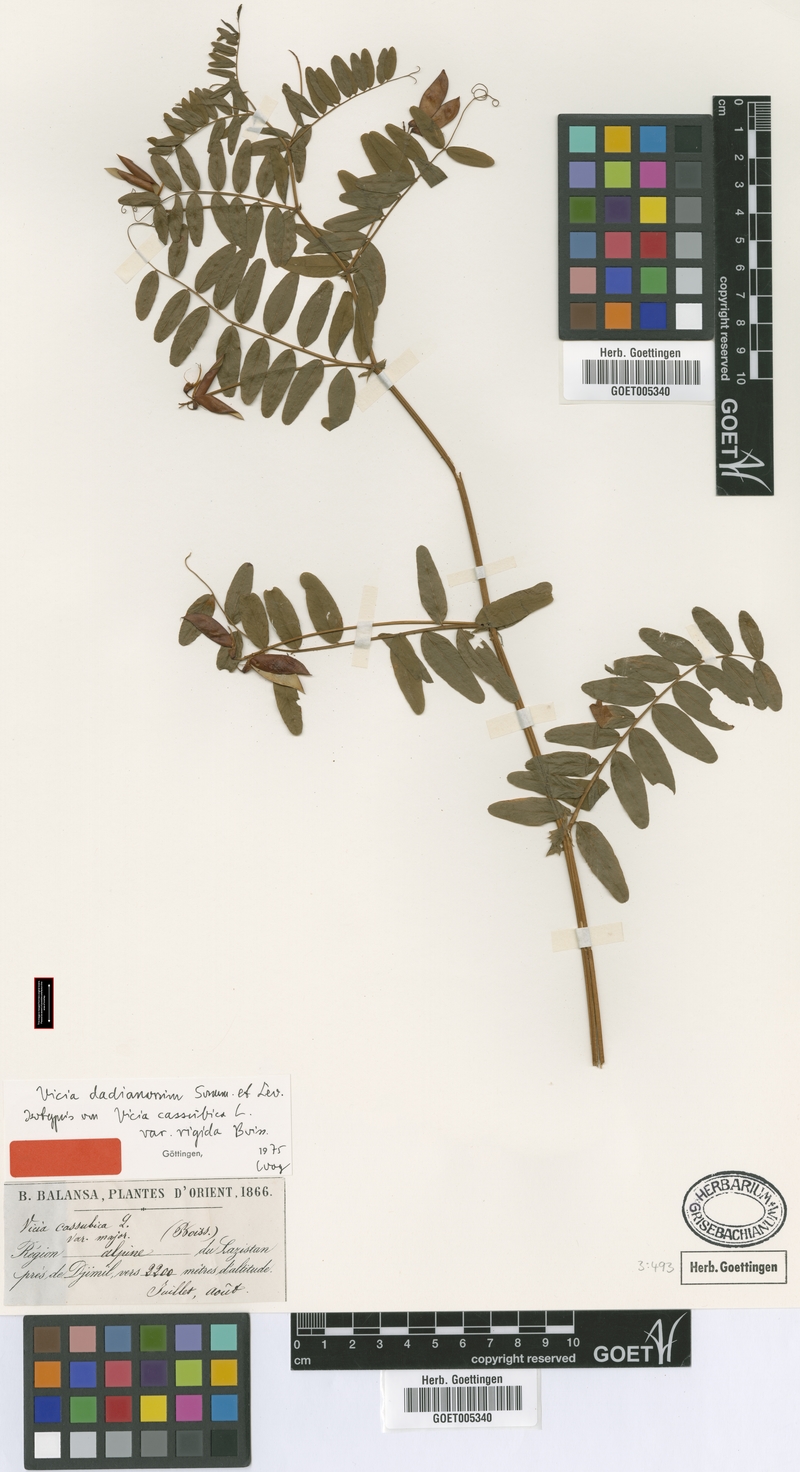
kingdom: Plantae
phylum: Tracheophyta
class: Magnoliopsida
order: Fabales
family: Fabaceae
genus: Vicia
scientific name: Vicia dadianorum
